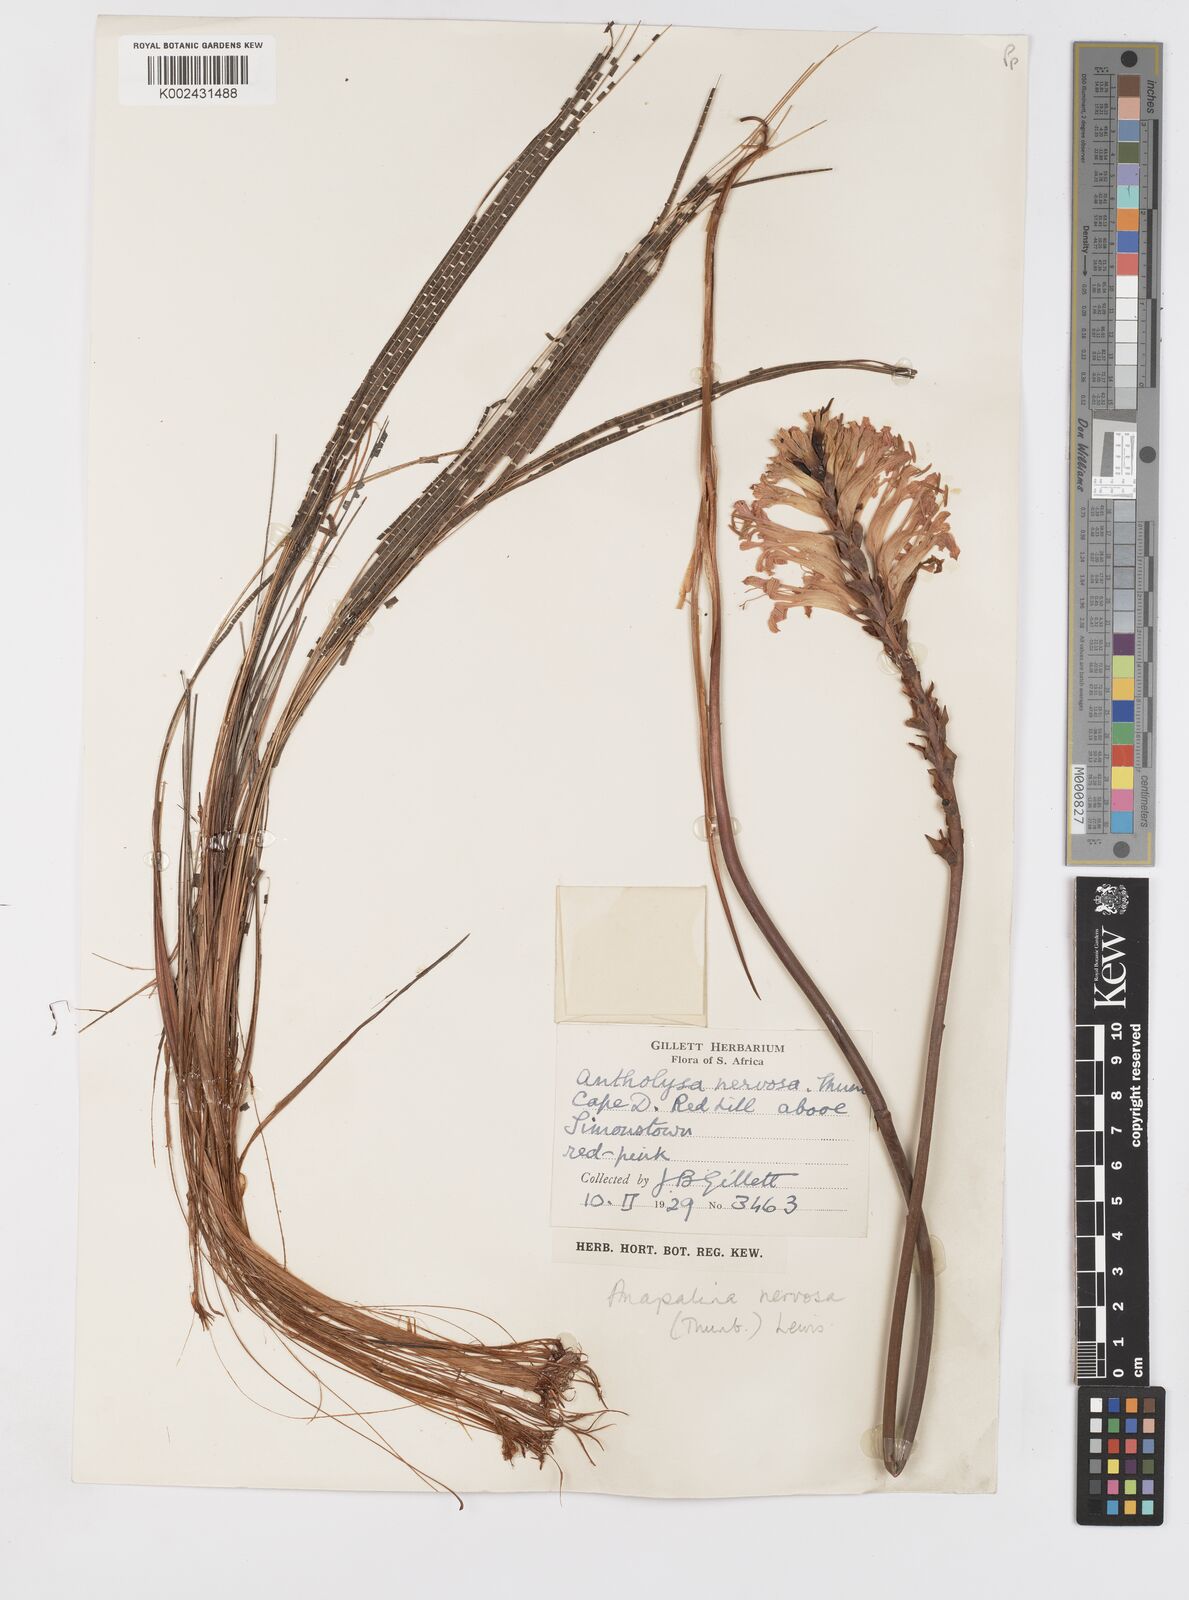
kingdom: Plantae
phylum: Tracheophyta
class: Liliopsida
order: Asparagales
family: Iridaceae
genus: Tritoniopsis
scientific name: Tritoniopsis nervosa
